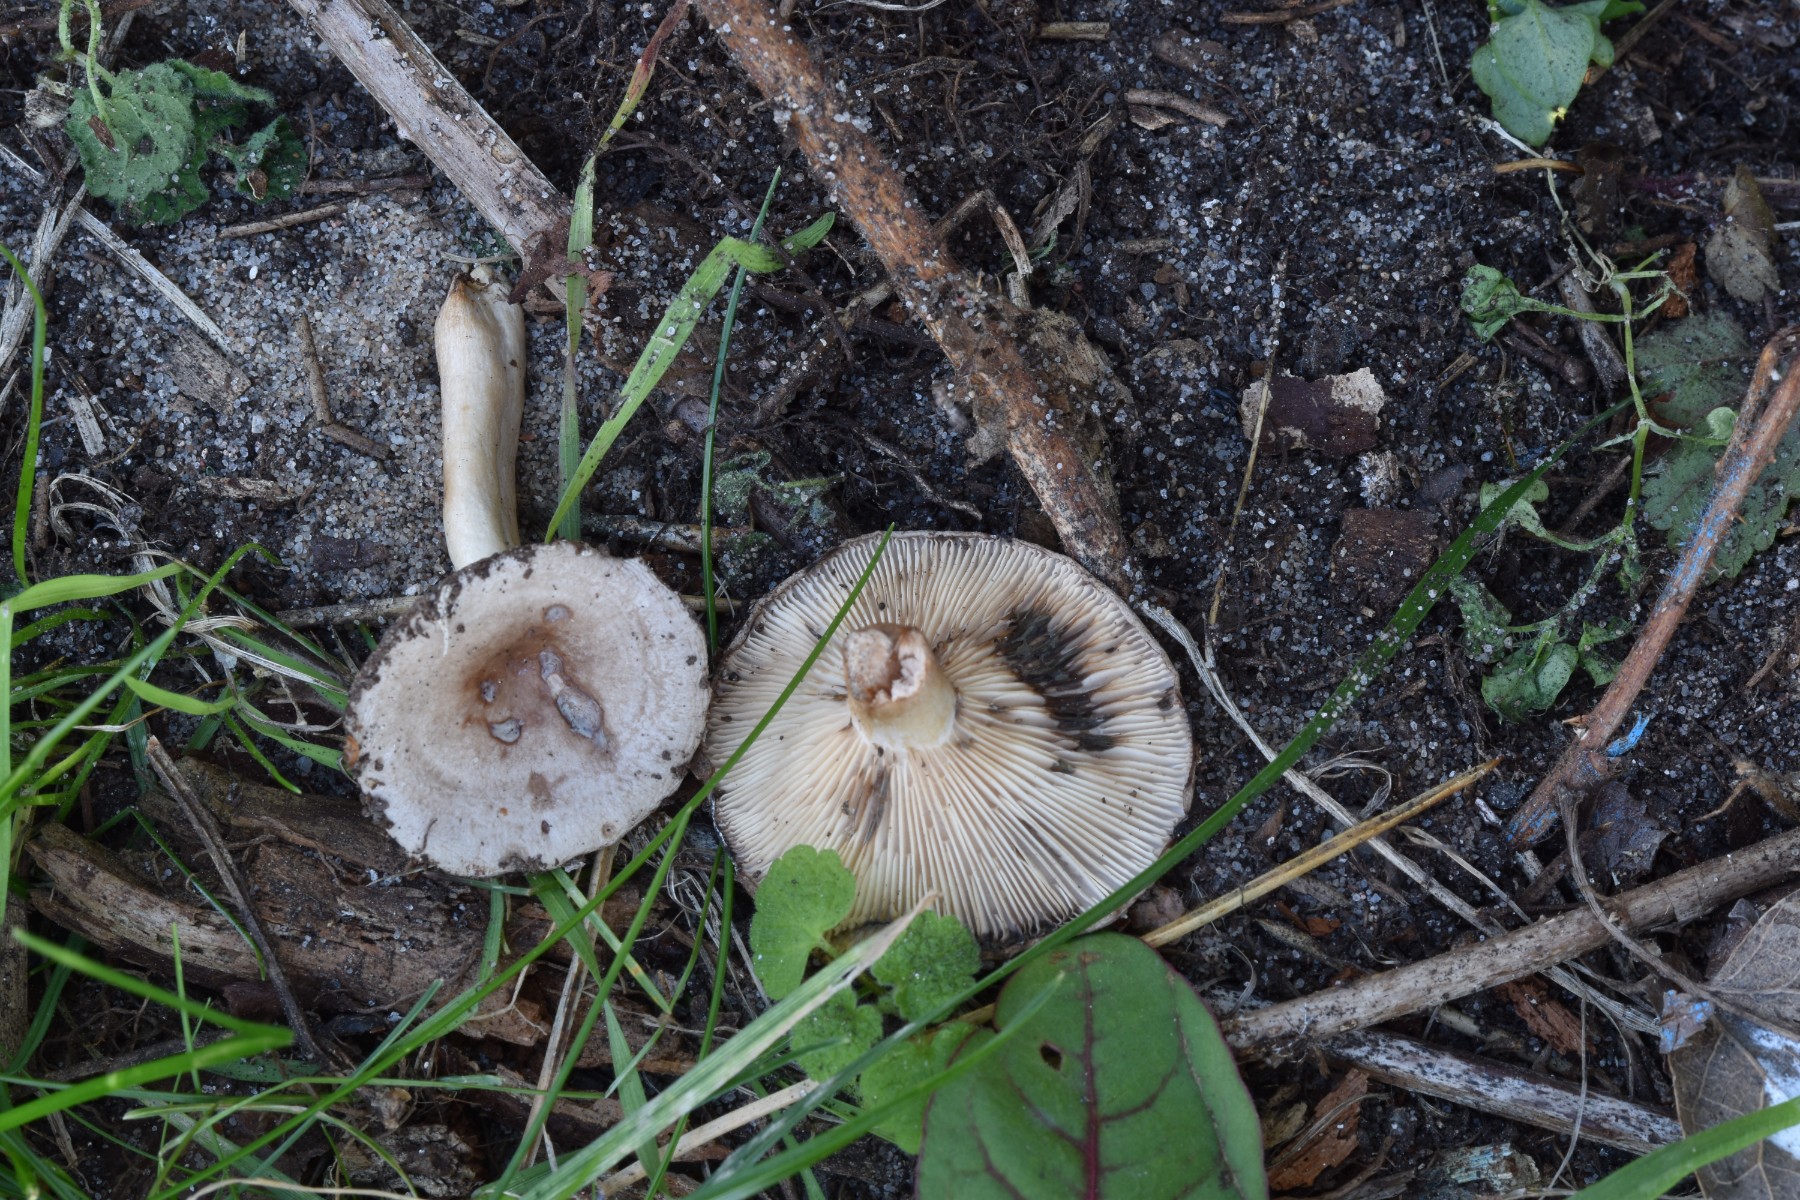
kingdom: Fungi
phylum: Basidiomycota
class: Agaricomycetes
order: Russulales
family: Russulaceae
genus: Lactarius
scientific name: Lactarius vietus
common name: violetgrå mælkehat
